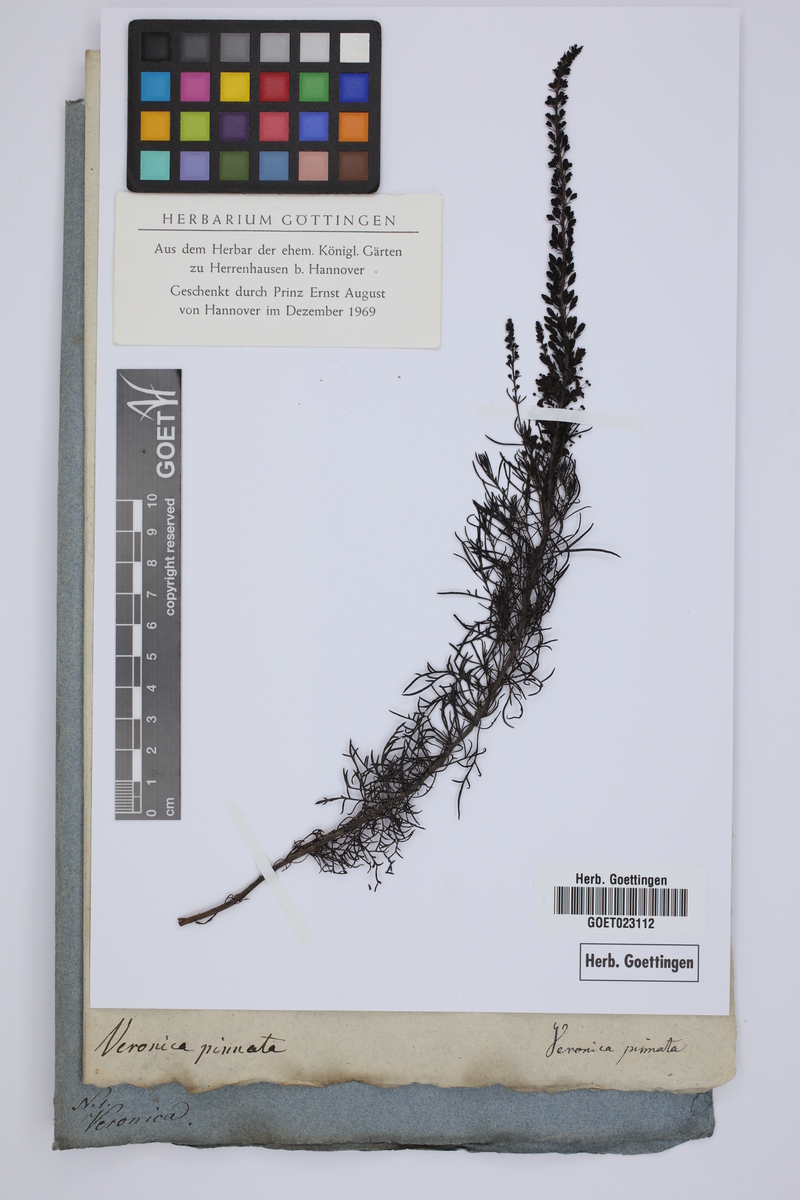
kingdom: Plantae
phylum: Tracheophyta
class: Magnoliopsida
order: Lamiales
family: Plantaginaceae
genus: Veronica
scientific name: Veronica pinnata
